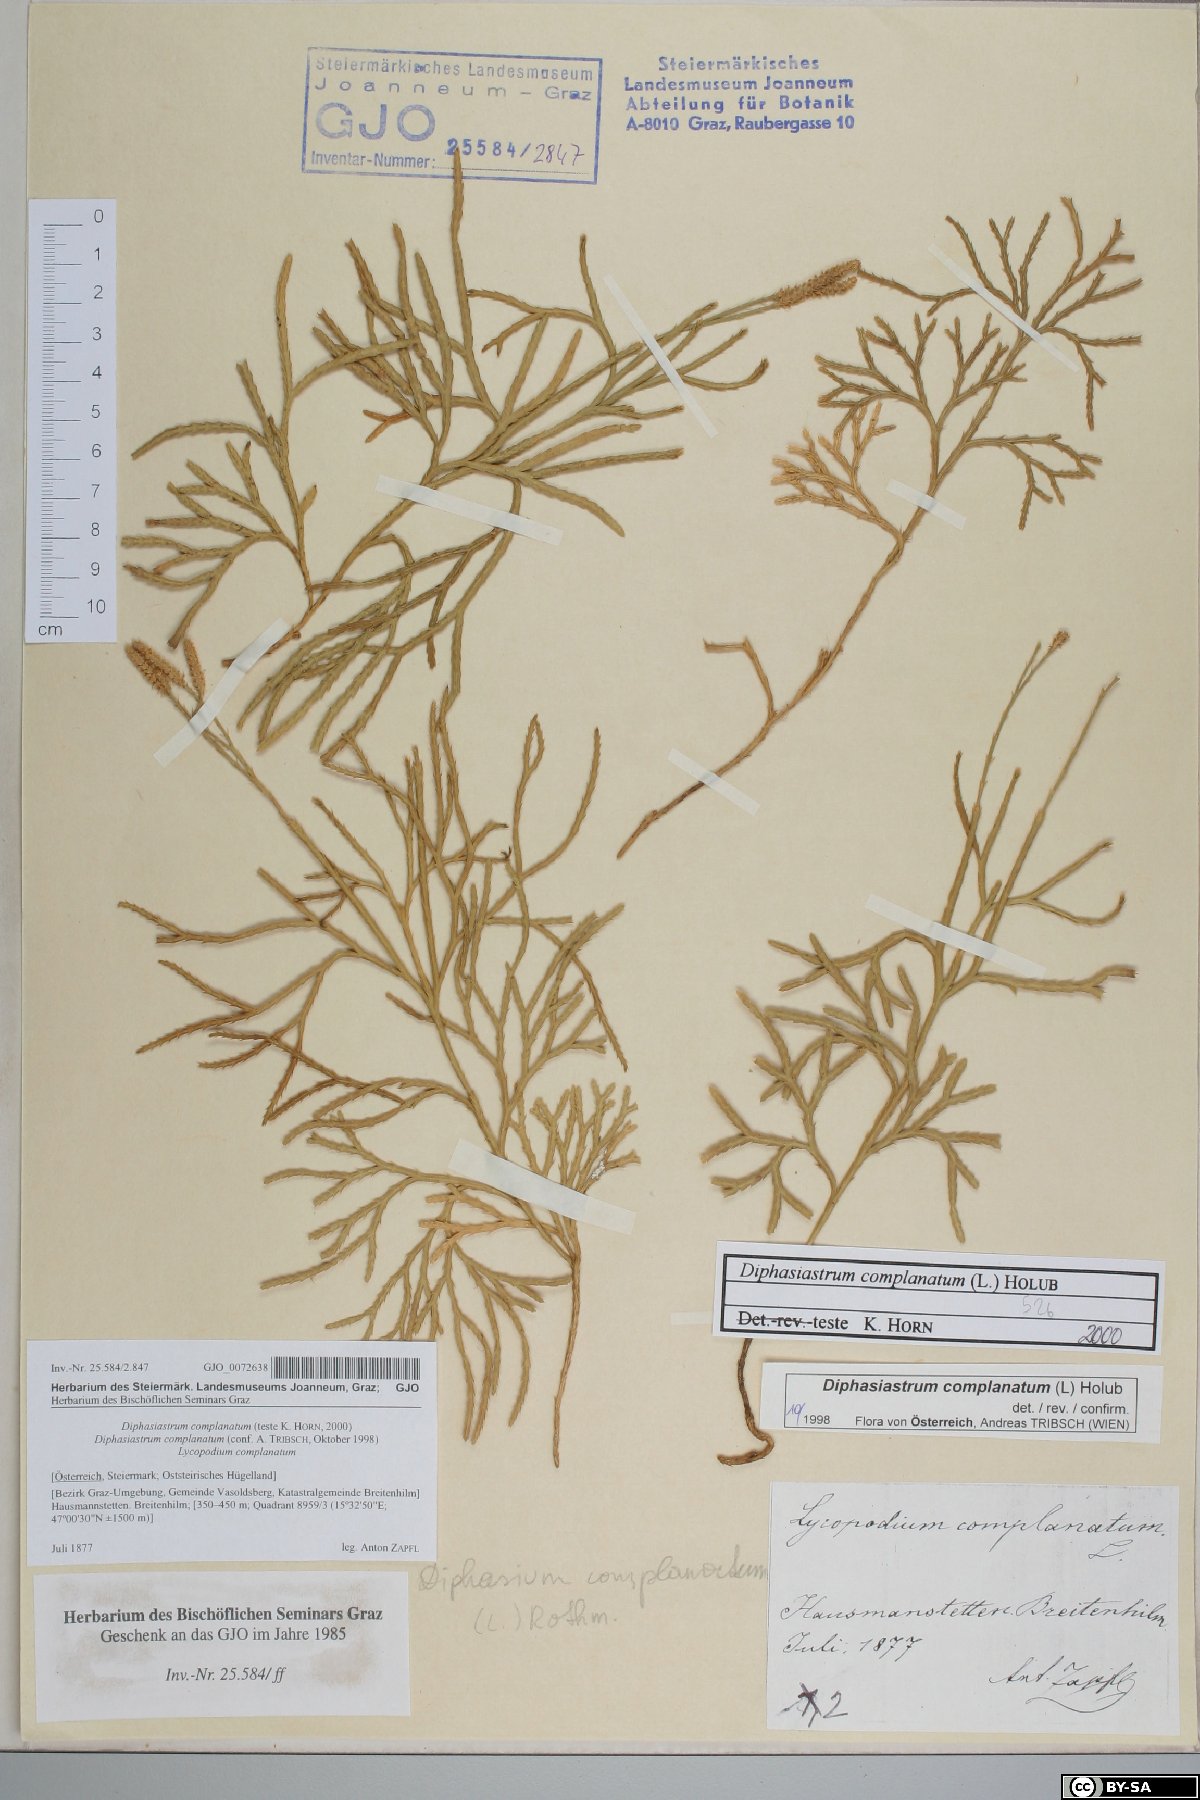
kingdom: Plantae
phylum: Tracheophyta
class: Lycopodiopsida
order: Lycopodiales
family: Lycopodiaceae
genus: Diphasiastrum
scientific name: Diphasiastrum complanatum
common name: Northern running-pine
